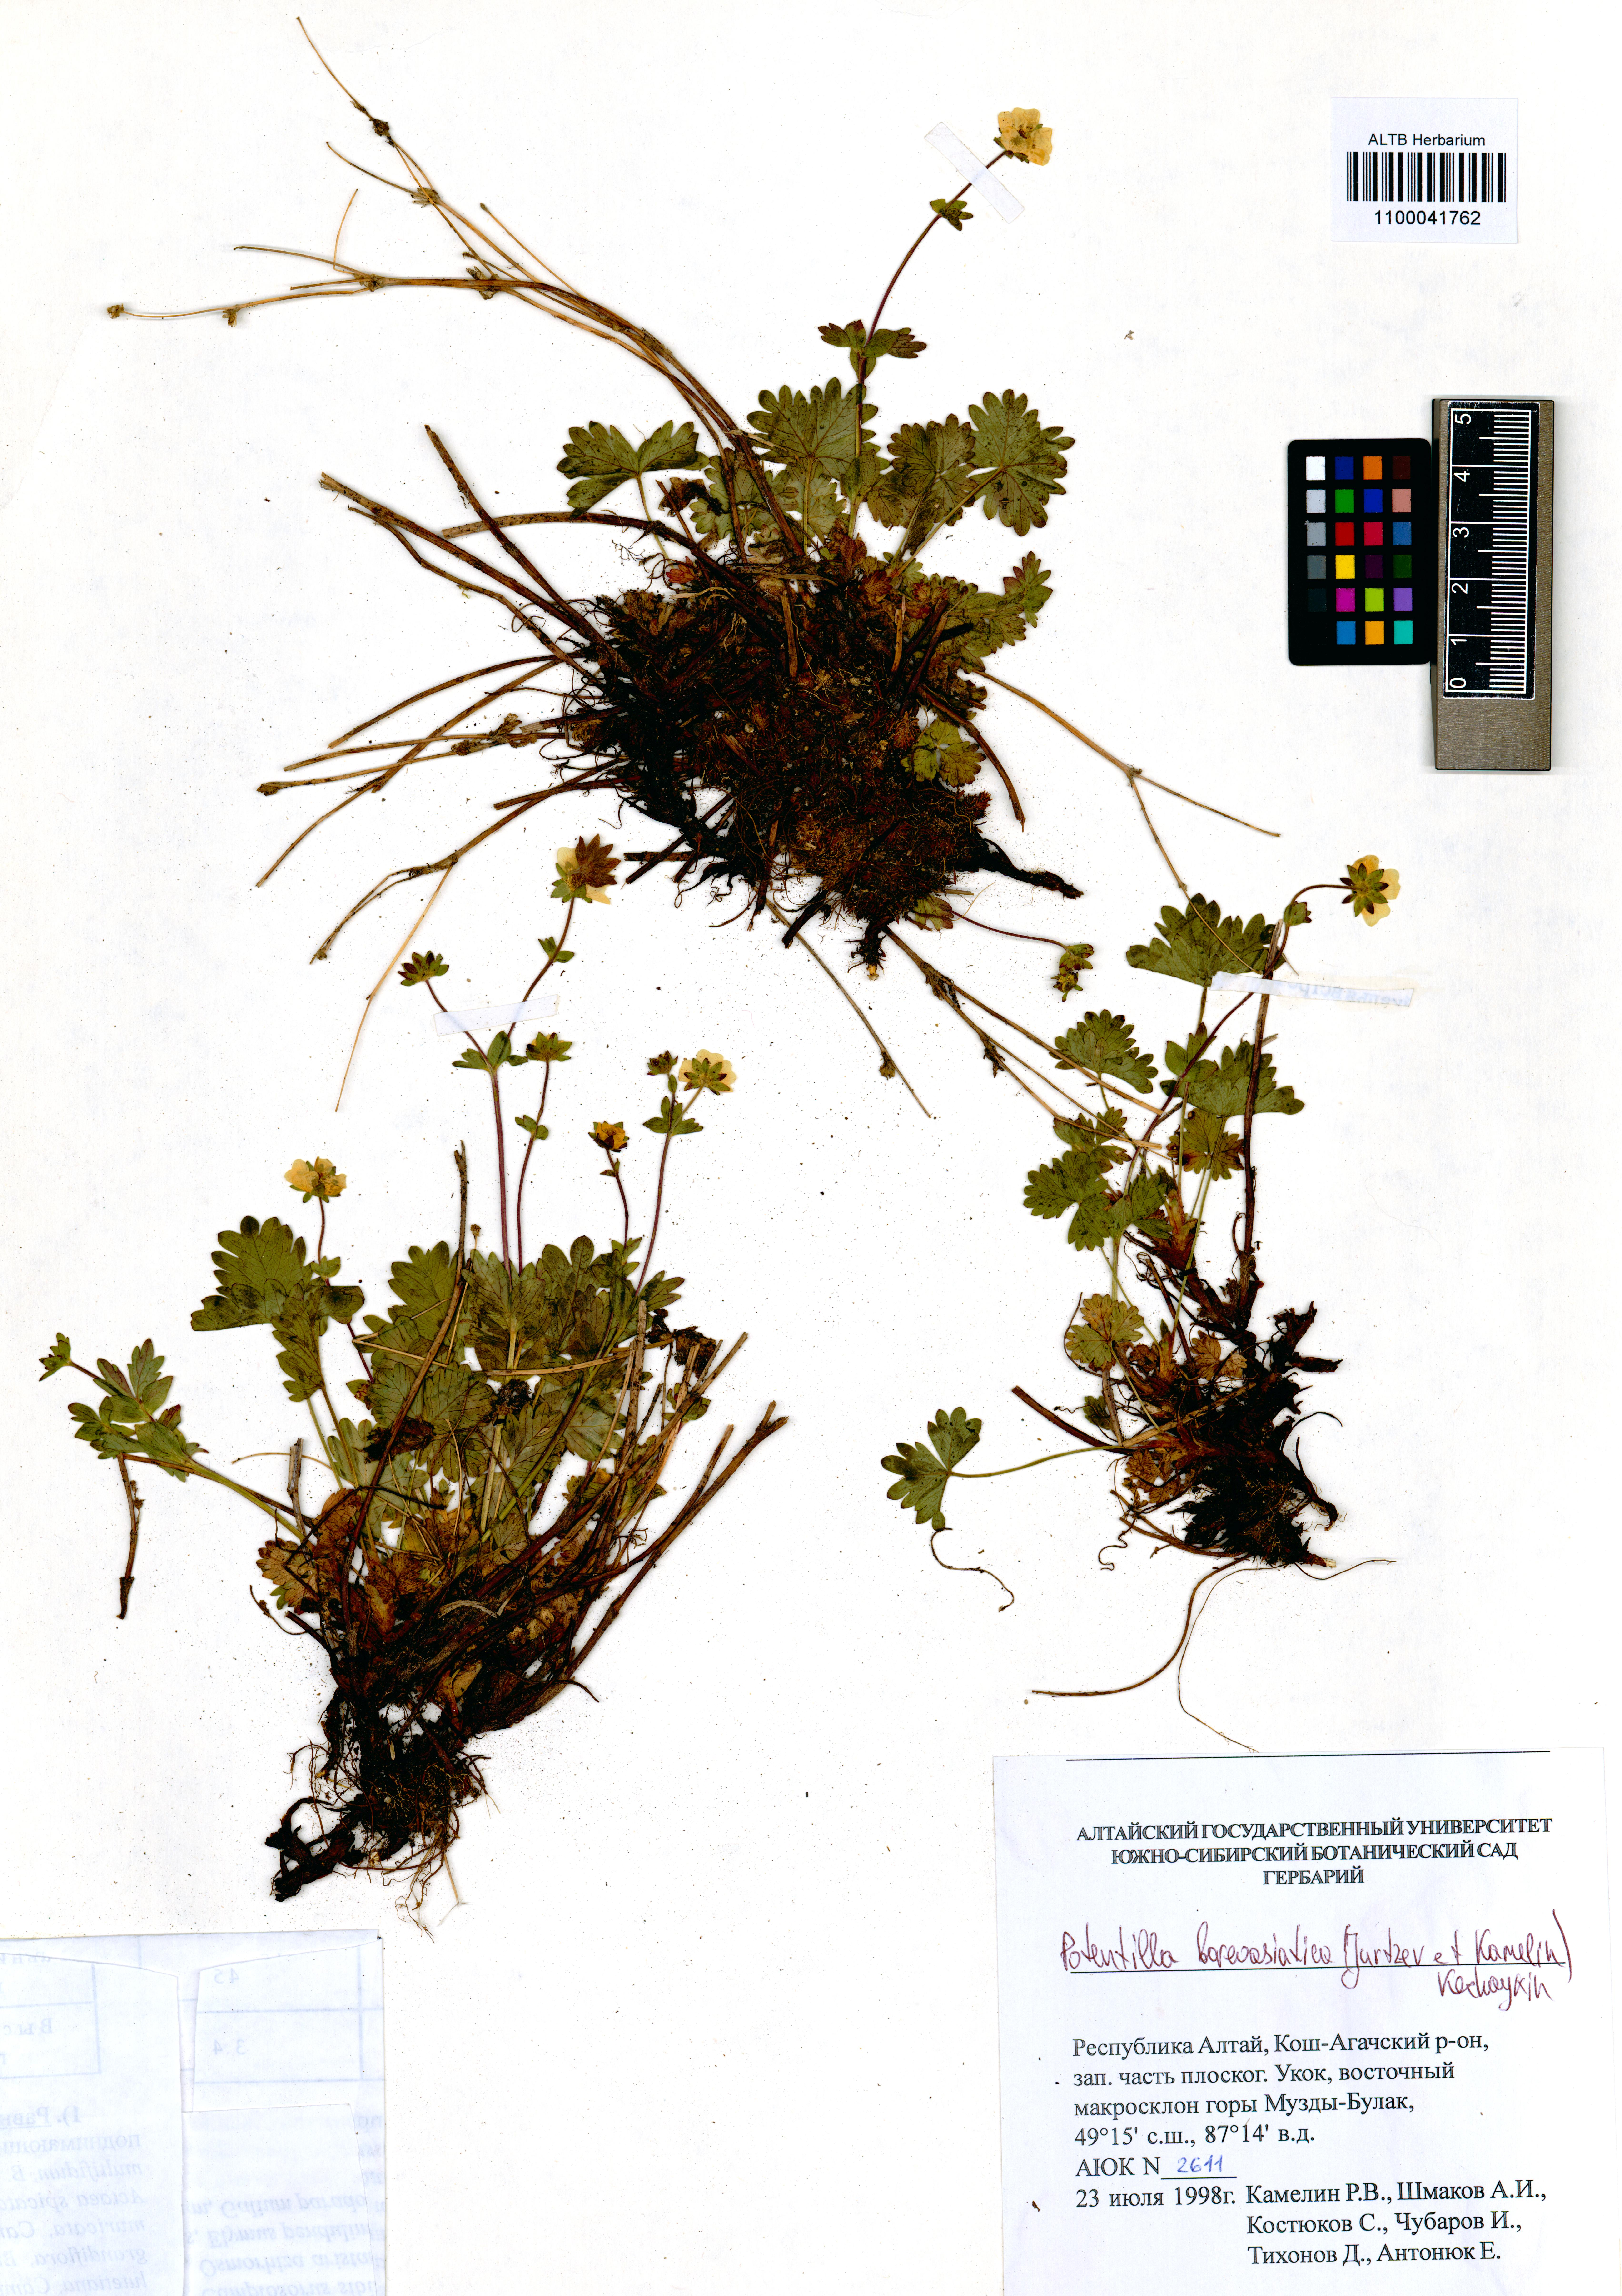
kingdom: Plantae
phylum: Tracheophyta
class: Magnoliopsida
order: Rosales
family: Rosaceae
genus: Potentilla
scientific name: Potentilla
